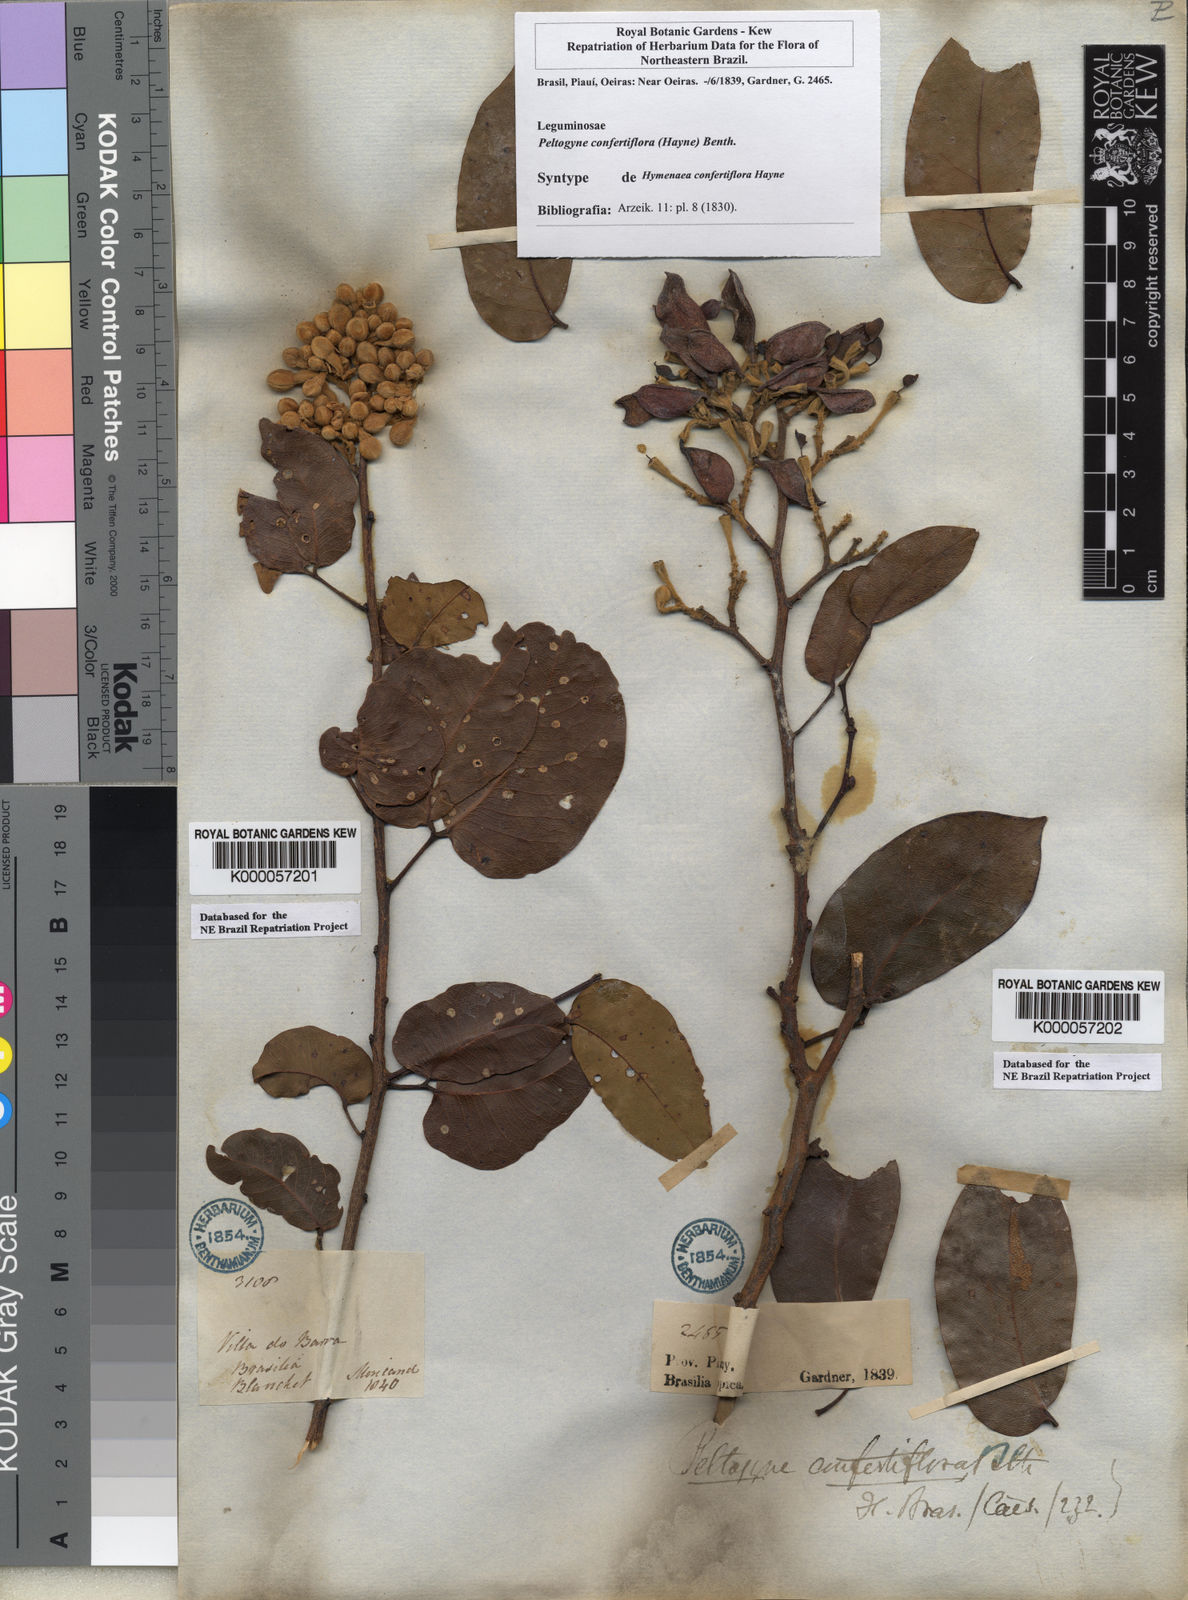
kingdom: Plantae
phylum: Tracheophyta
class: Magnoliopsida
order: Fabales
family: Fabaceae
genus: Peltogyne
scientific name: Peltogyne confertiflora
